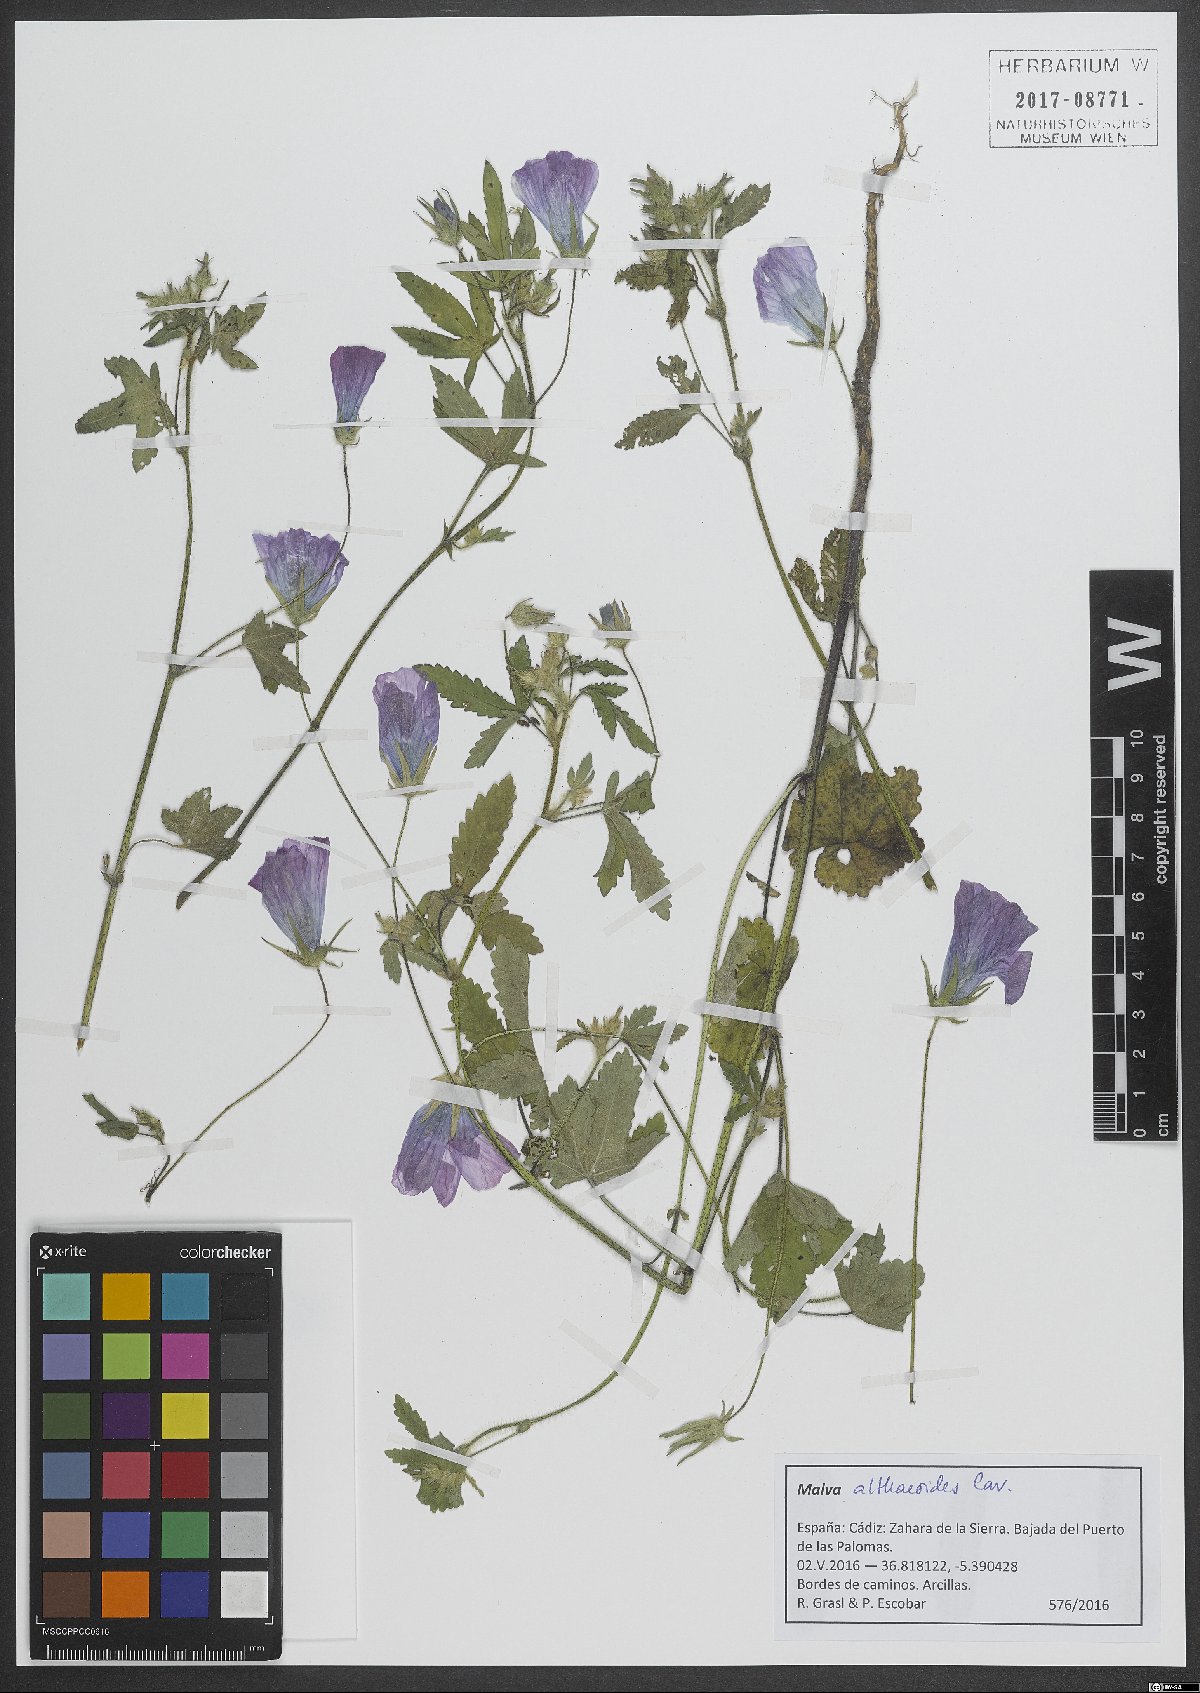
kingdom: Plantae
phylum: Tracheophyta
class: Magnoliopsida
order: Malvales
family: Malvaceae
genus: Malva
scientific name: Malva cretica
